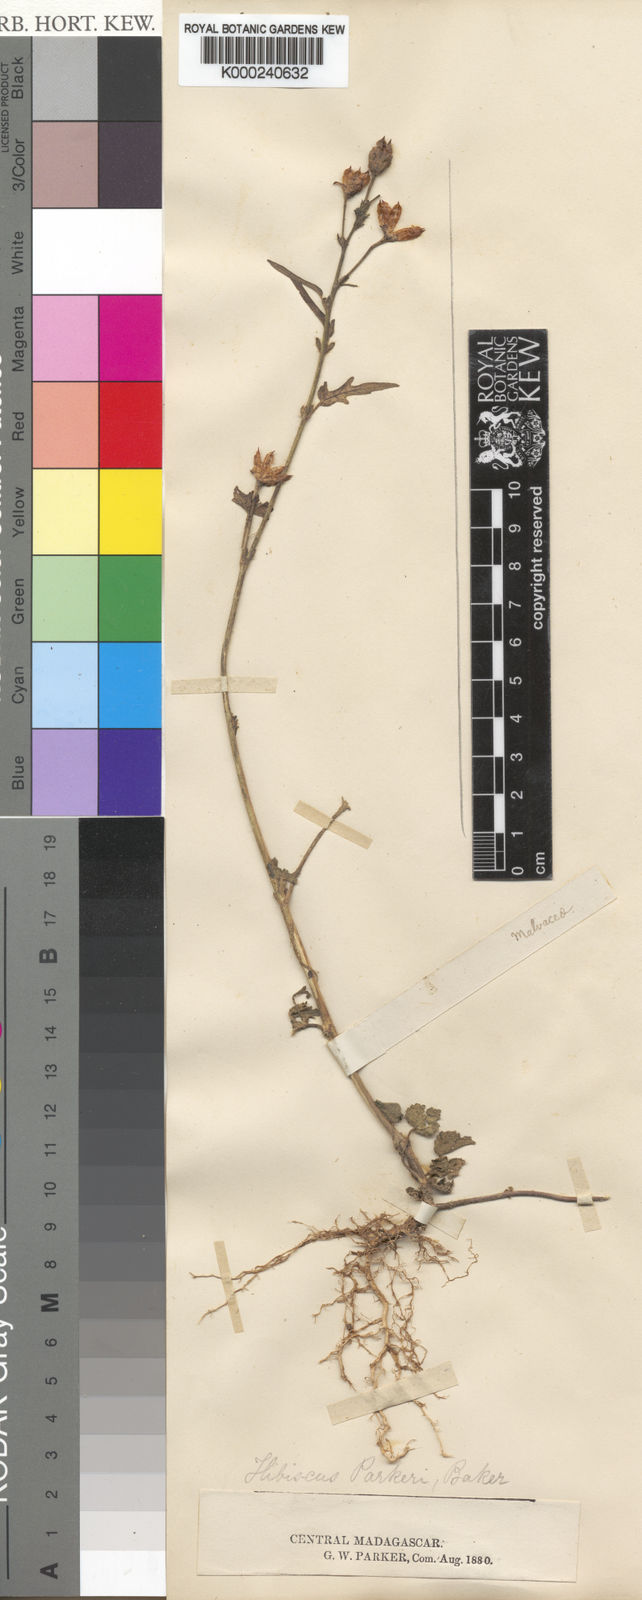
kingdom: Plantae
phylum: Tracheophyta
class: Magnoliopsida
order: Malvales
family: Malvaceae
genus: Hibiscus
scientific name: Hibiscus lobatus
